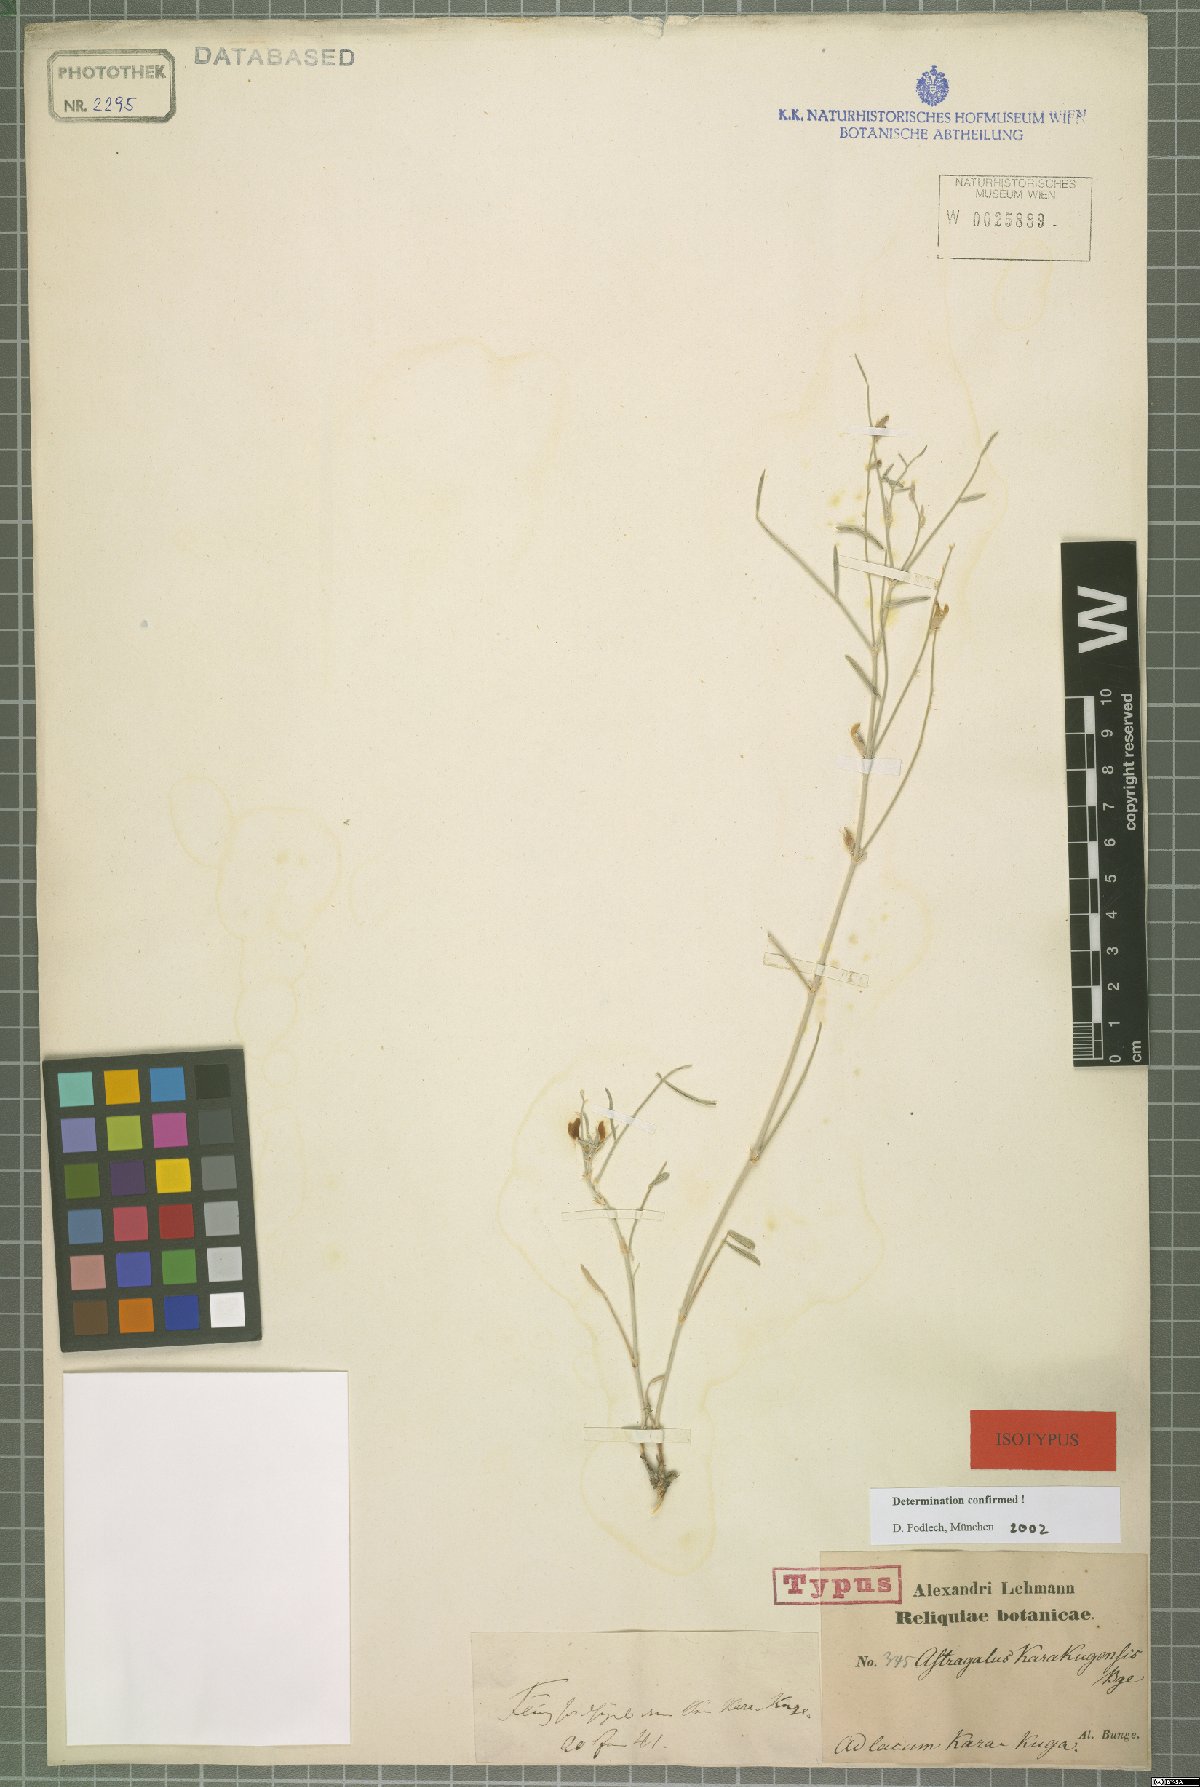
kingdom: Plantae
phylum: Tracheophyta
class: Magnoliopsida
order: Fabales
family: Fabaceae
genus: Astragalus
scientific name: Astragalus karakugensis
